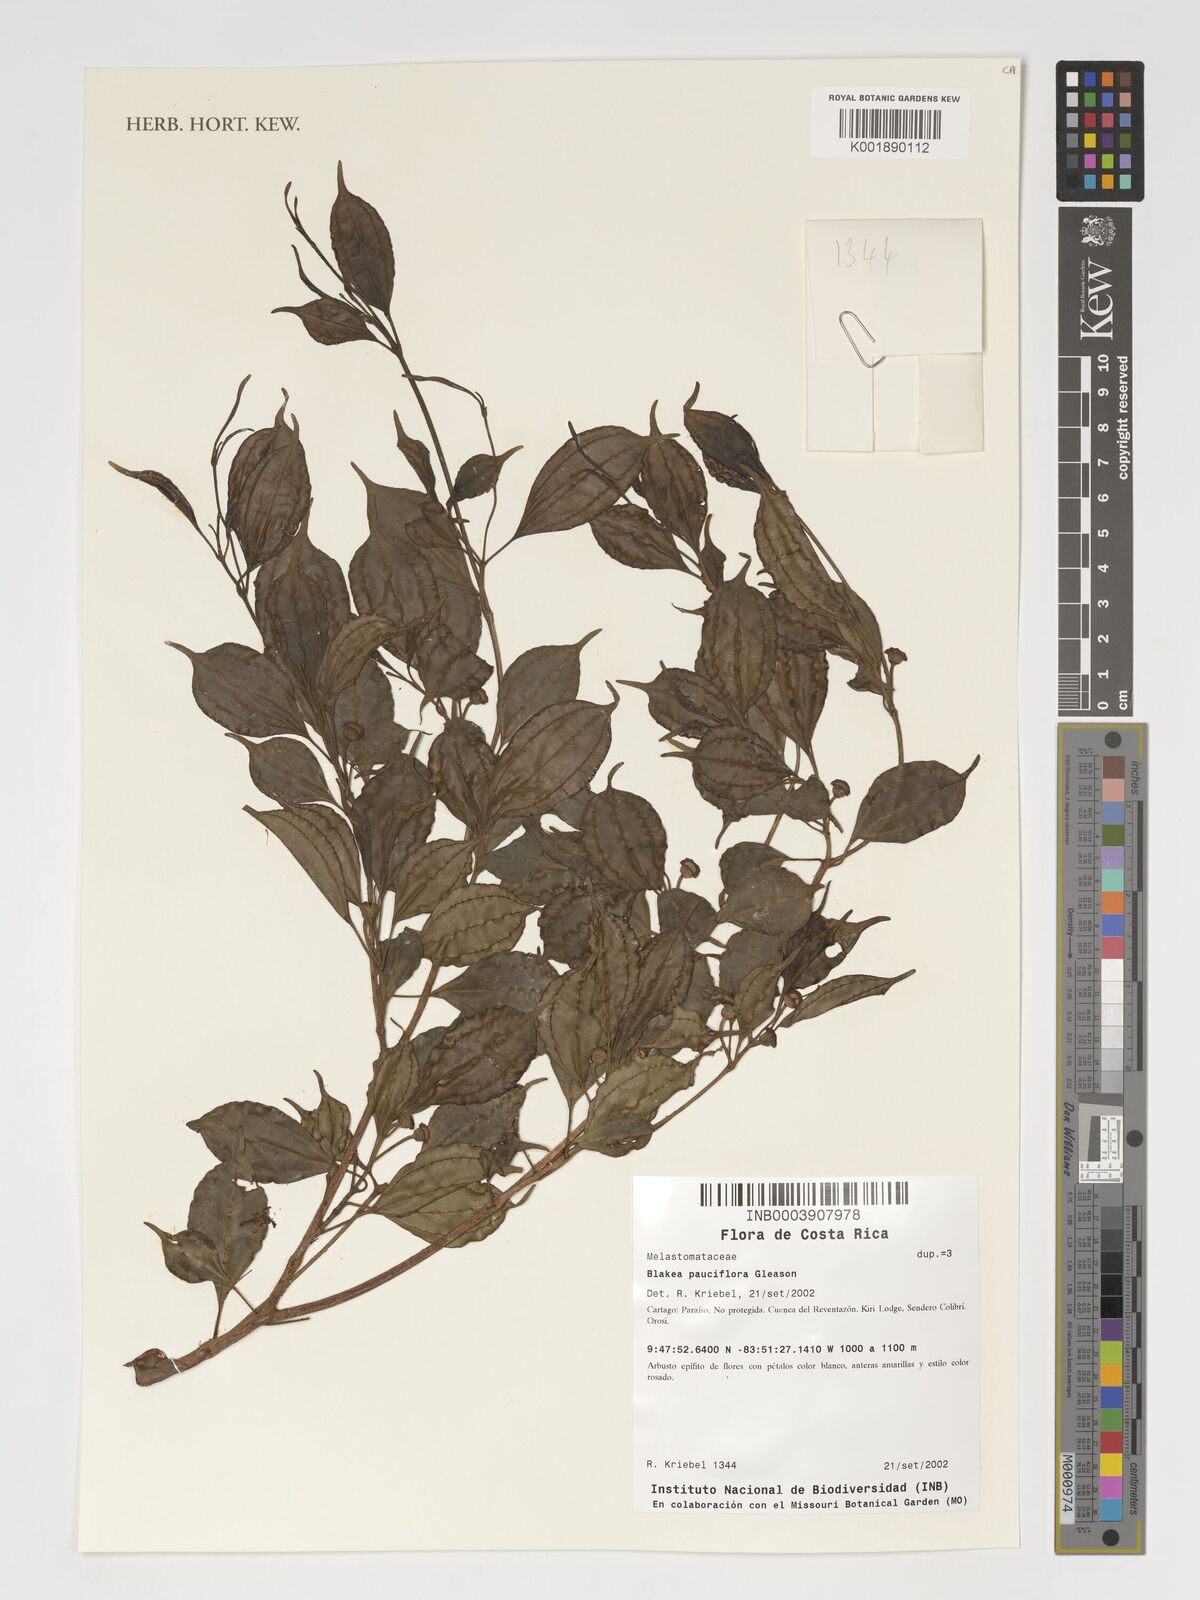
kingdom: Plantae
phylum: Tracheophyta
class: Magnoliopsida
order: Myrtales
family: Melastomataceae
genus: Blakea
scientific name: Blakea pauciflora
